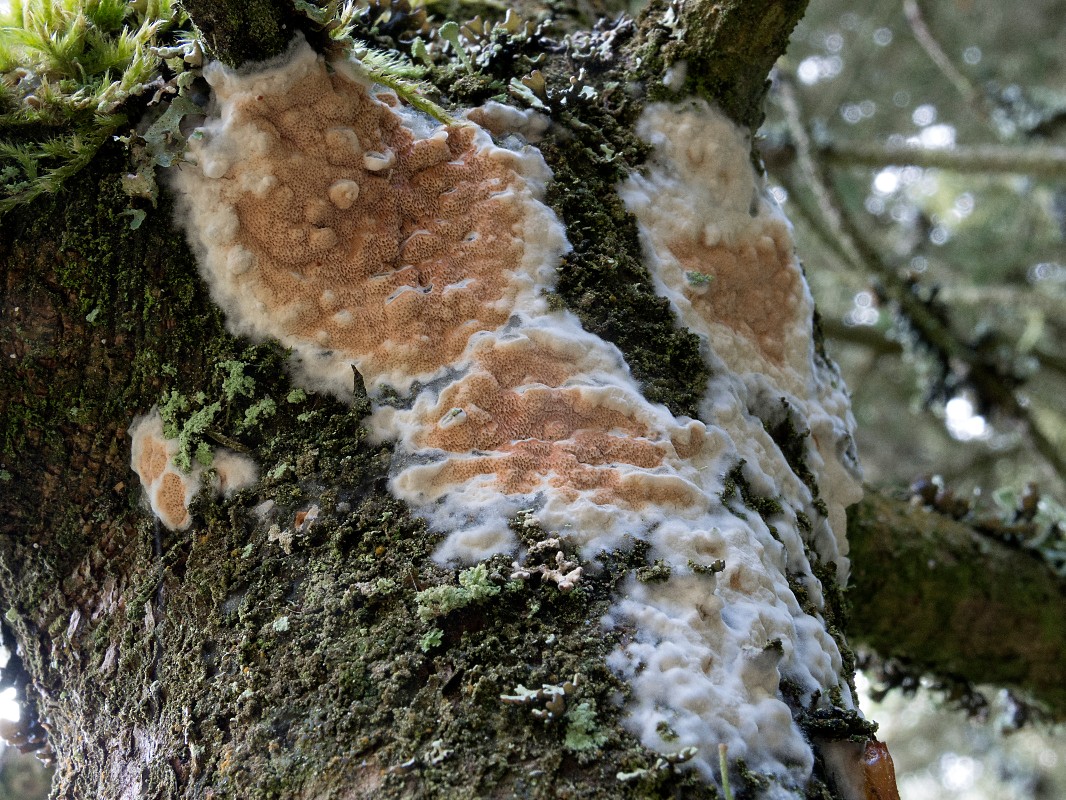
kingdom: Fungi
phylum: Basidiomycota
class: Agaricomycetes
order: Polyporales
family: Irpicaceae
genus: Meruliopsis
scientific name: Meruliopsis taxicola
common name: purpurbrun foldporesvamp
